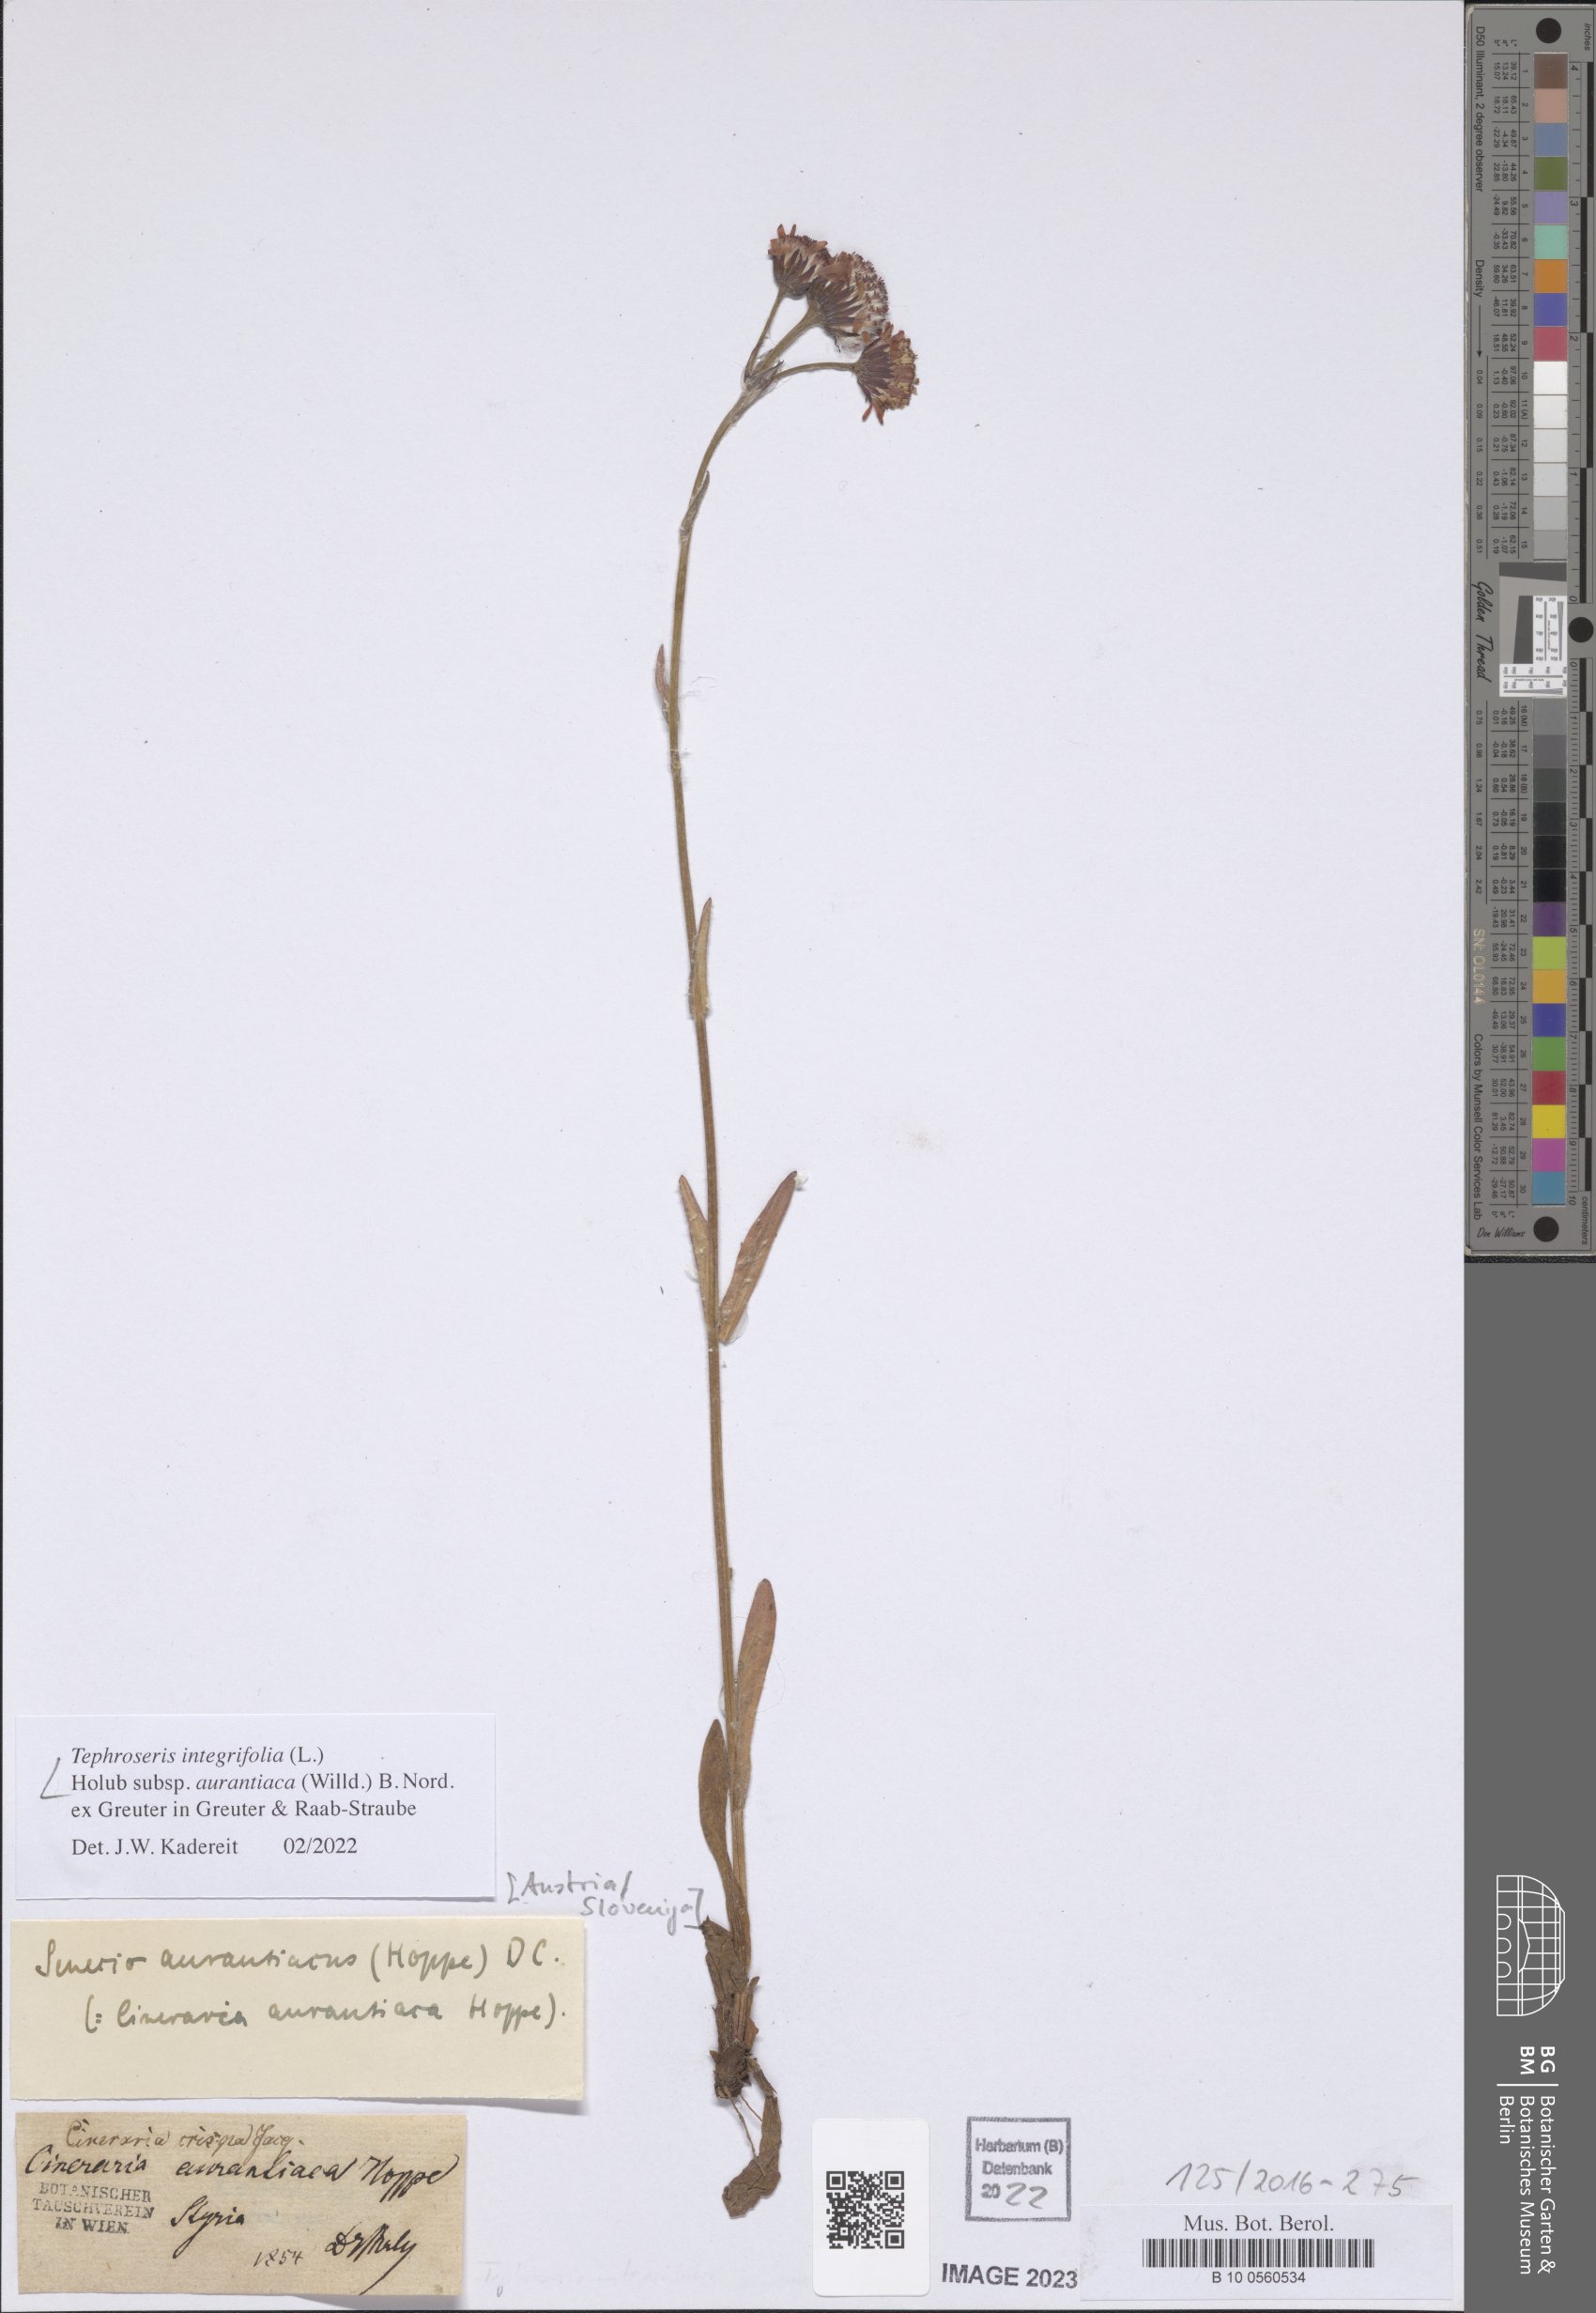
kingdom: Plantae
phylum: Tracheophyta
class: Magnoliopsida
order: Asterales
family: Asteraceae
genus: Tephroseris
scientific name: Tephroseris aurantiaca
